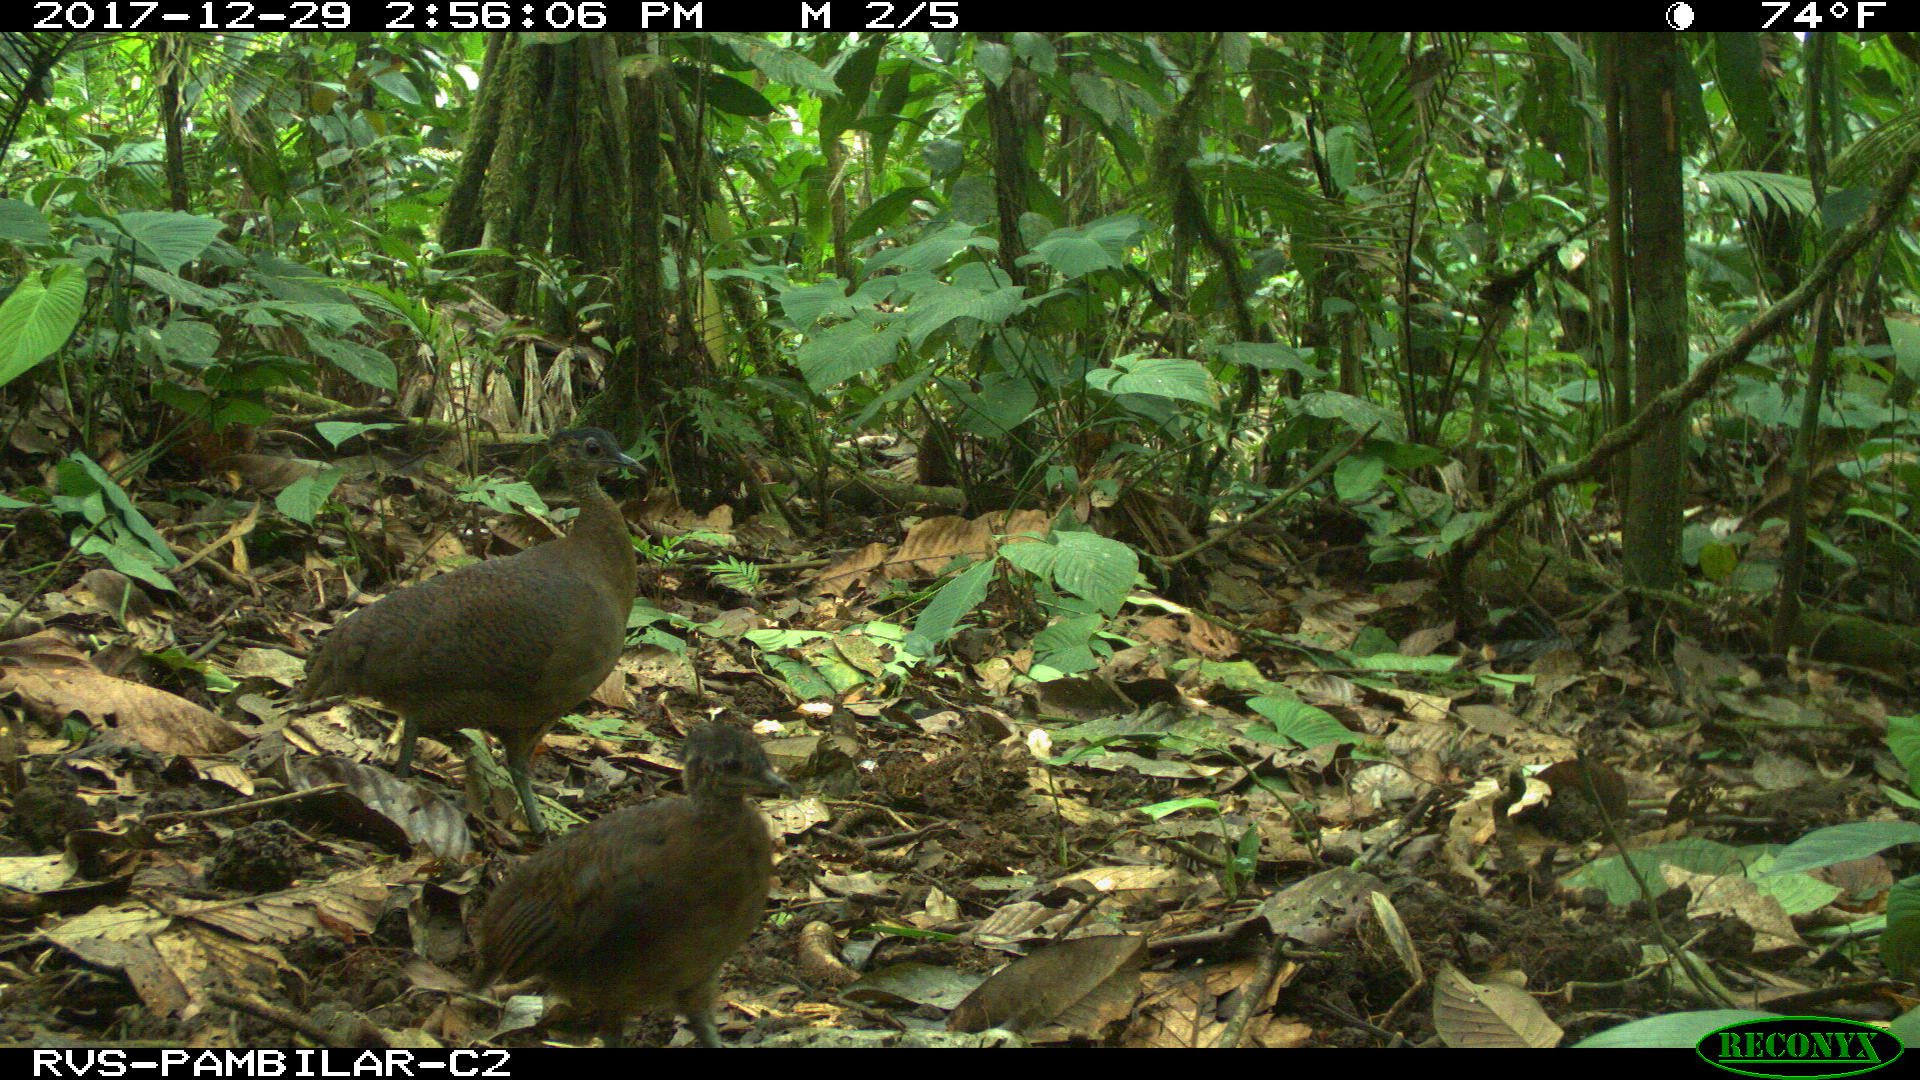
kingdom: Animalia
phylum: Chordata
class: Aves
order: Tinamiformes
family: Tinamidae
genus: Tinamus
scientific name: Tinamus major
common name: Great tinamou
